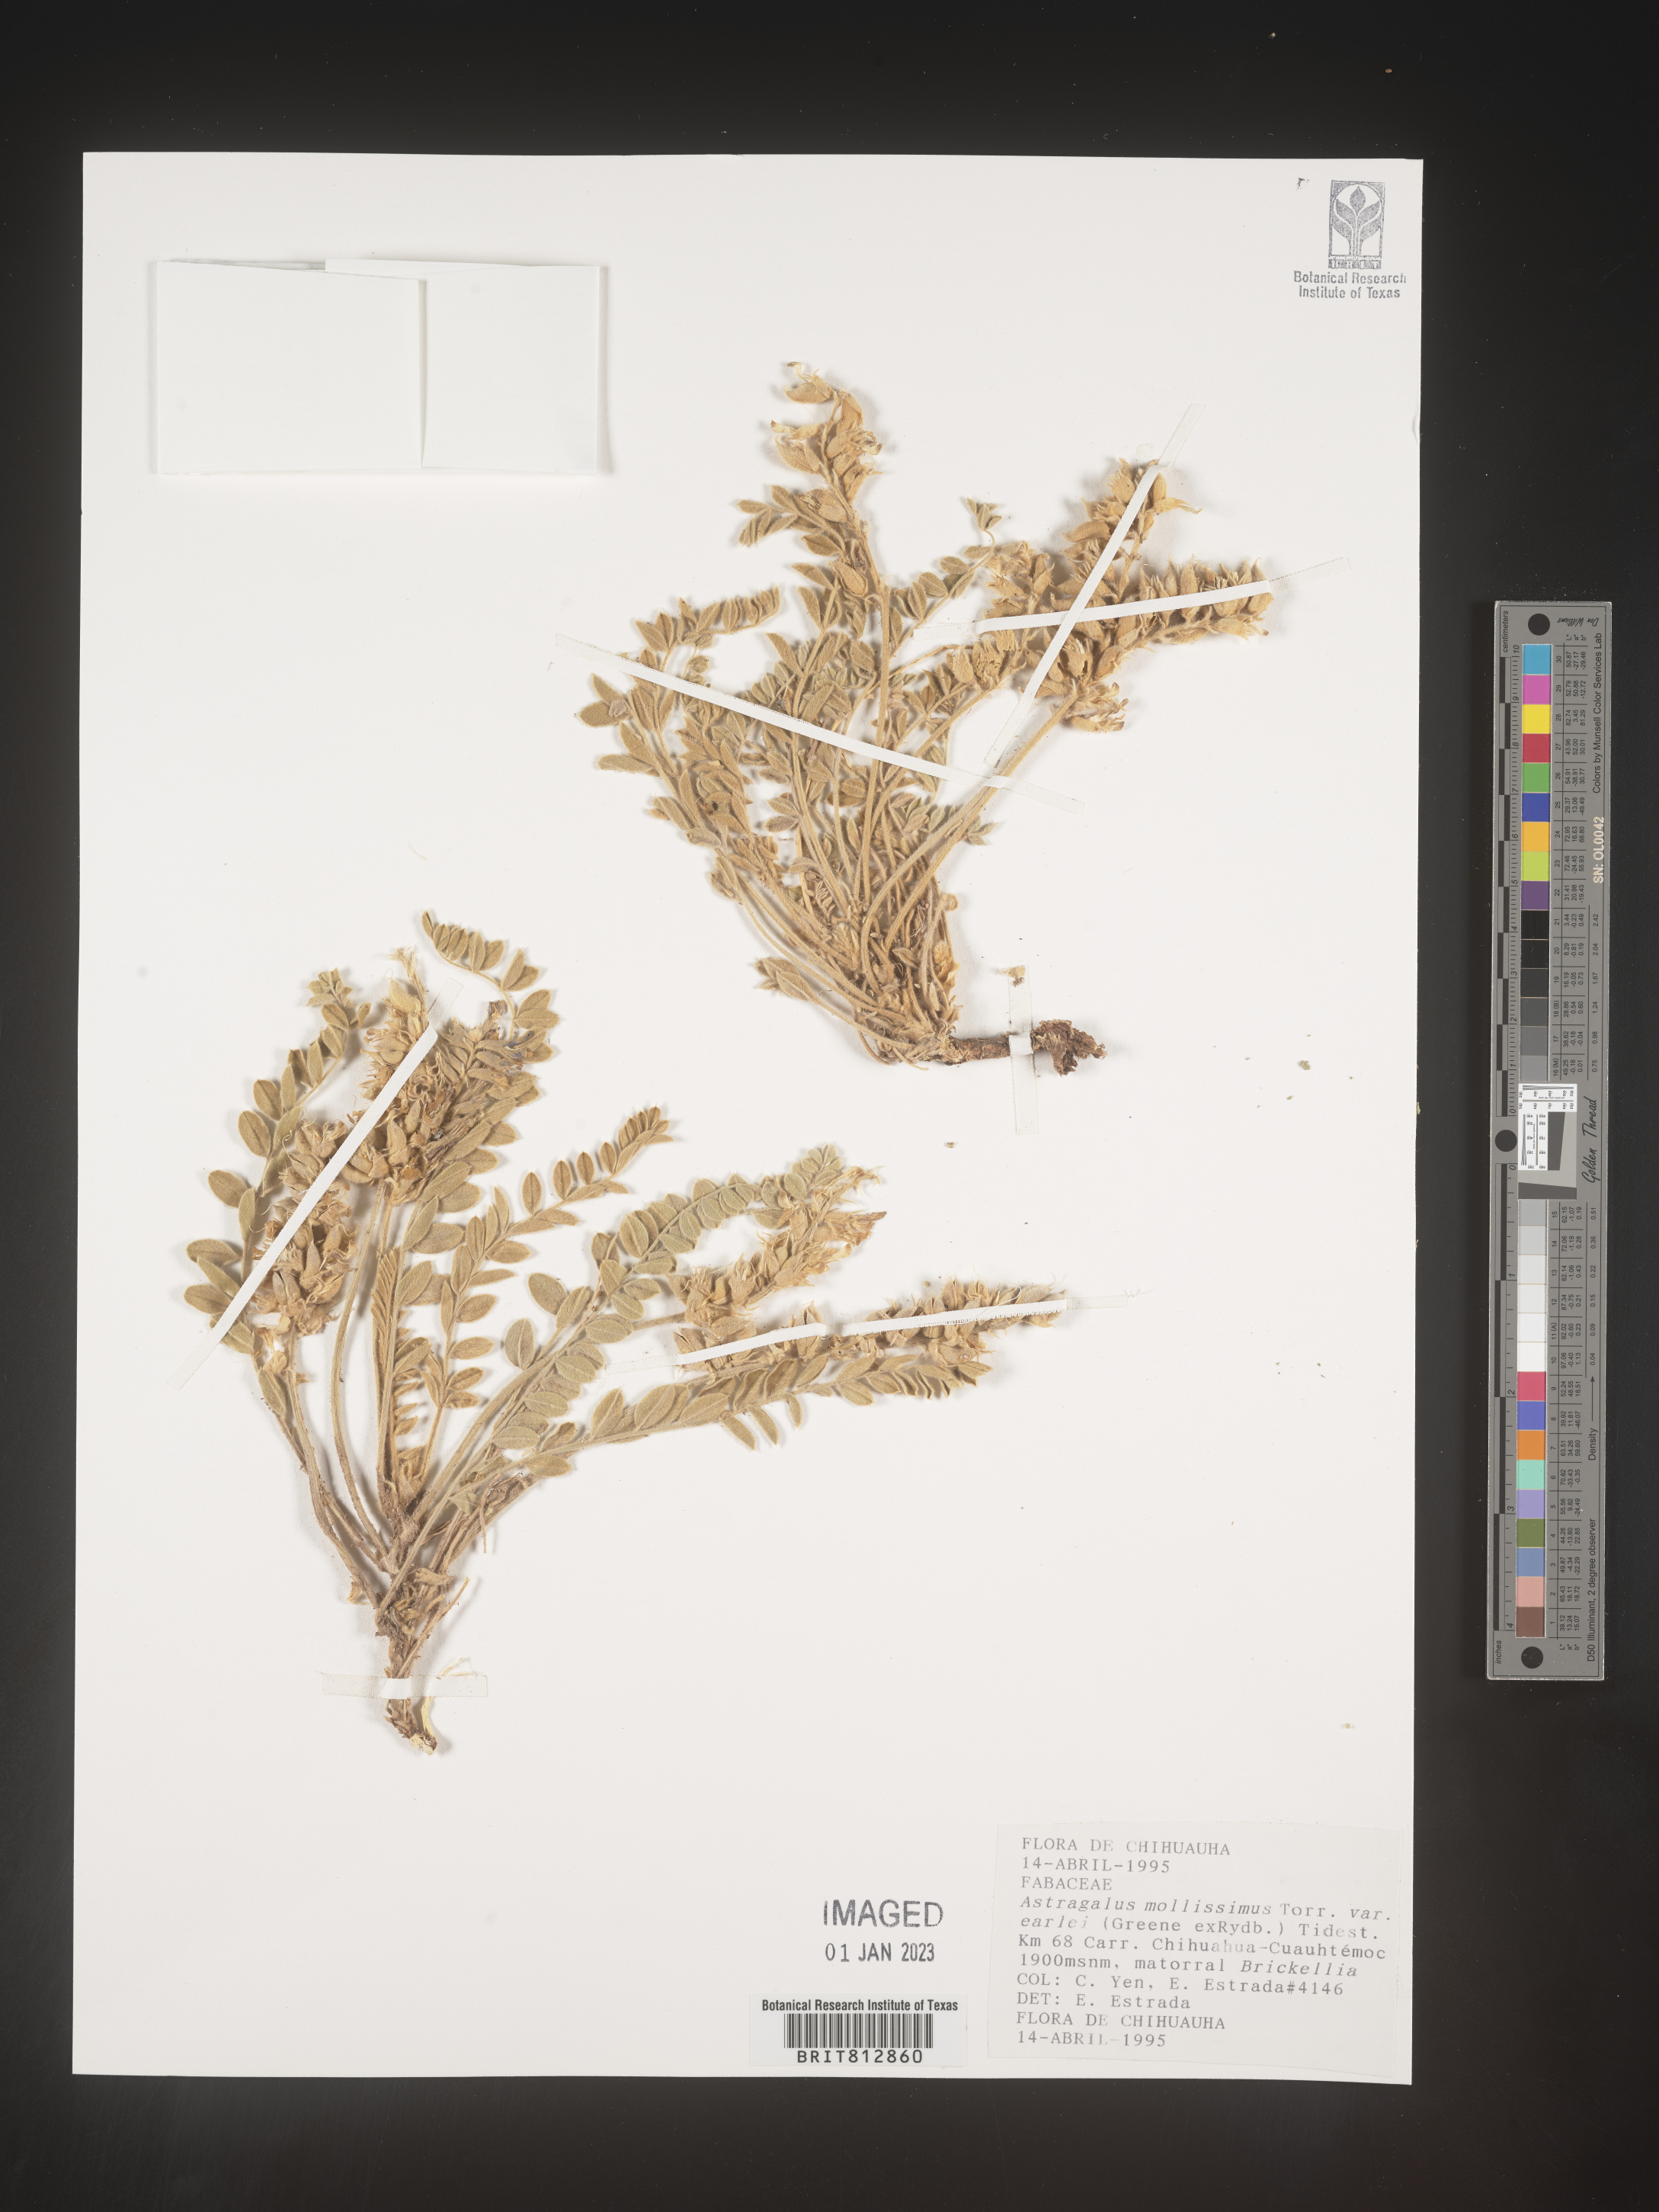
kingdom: Plantae
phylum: Tracheophyta
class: Magnoliopsida
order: Fabales
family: Fabaceae
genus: Astragalus
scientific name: Astragalus
